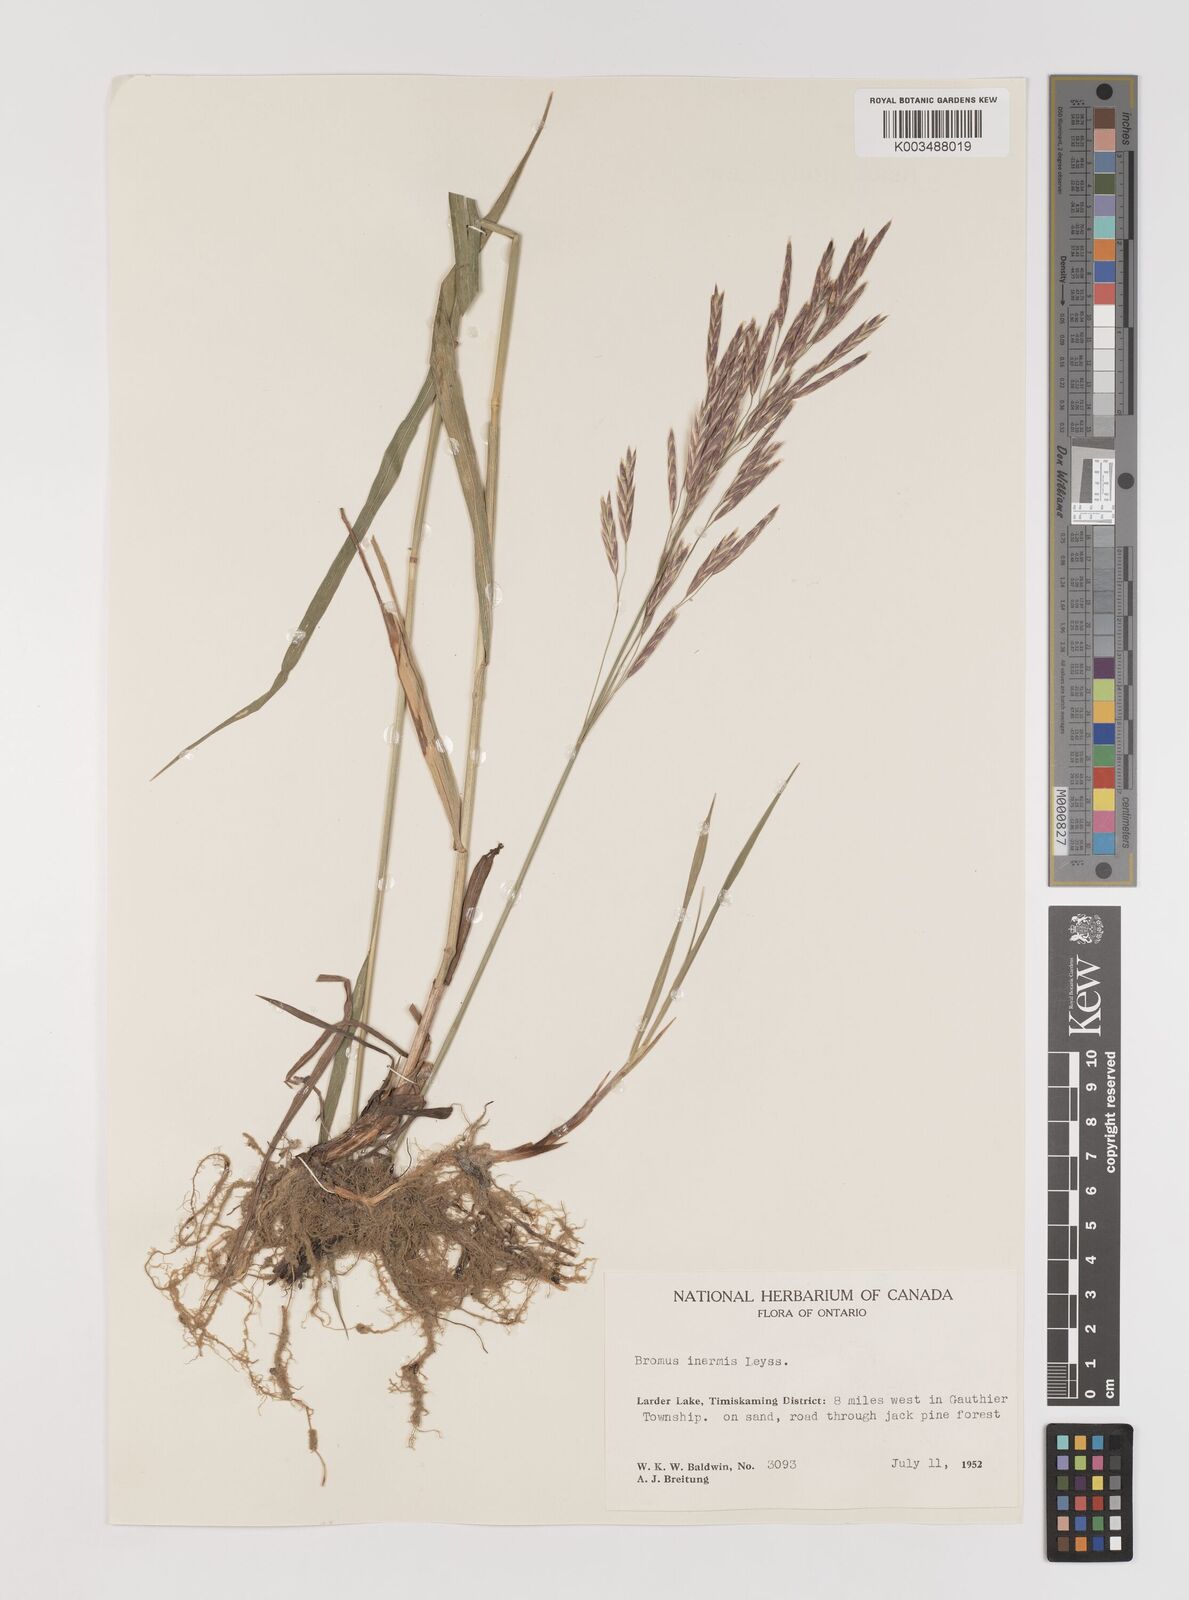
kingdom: Plantae
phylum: Tracheophyta
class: Liliopsida
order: Poales
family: Poaceae
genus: Bromus
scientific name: Bromus inermis
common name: Smooth brome
